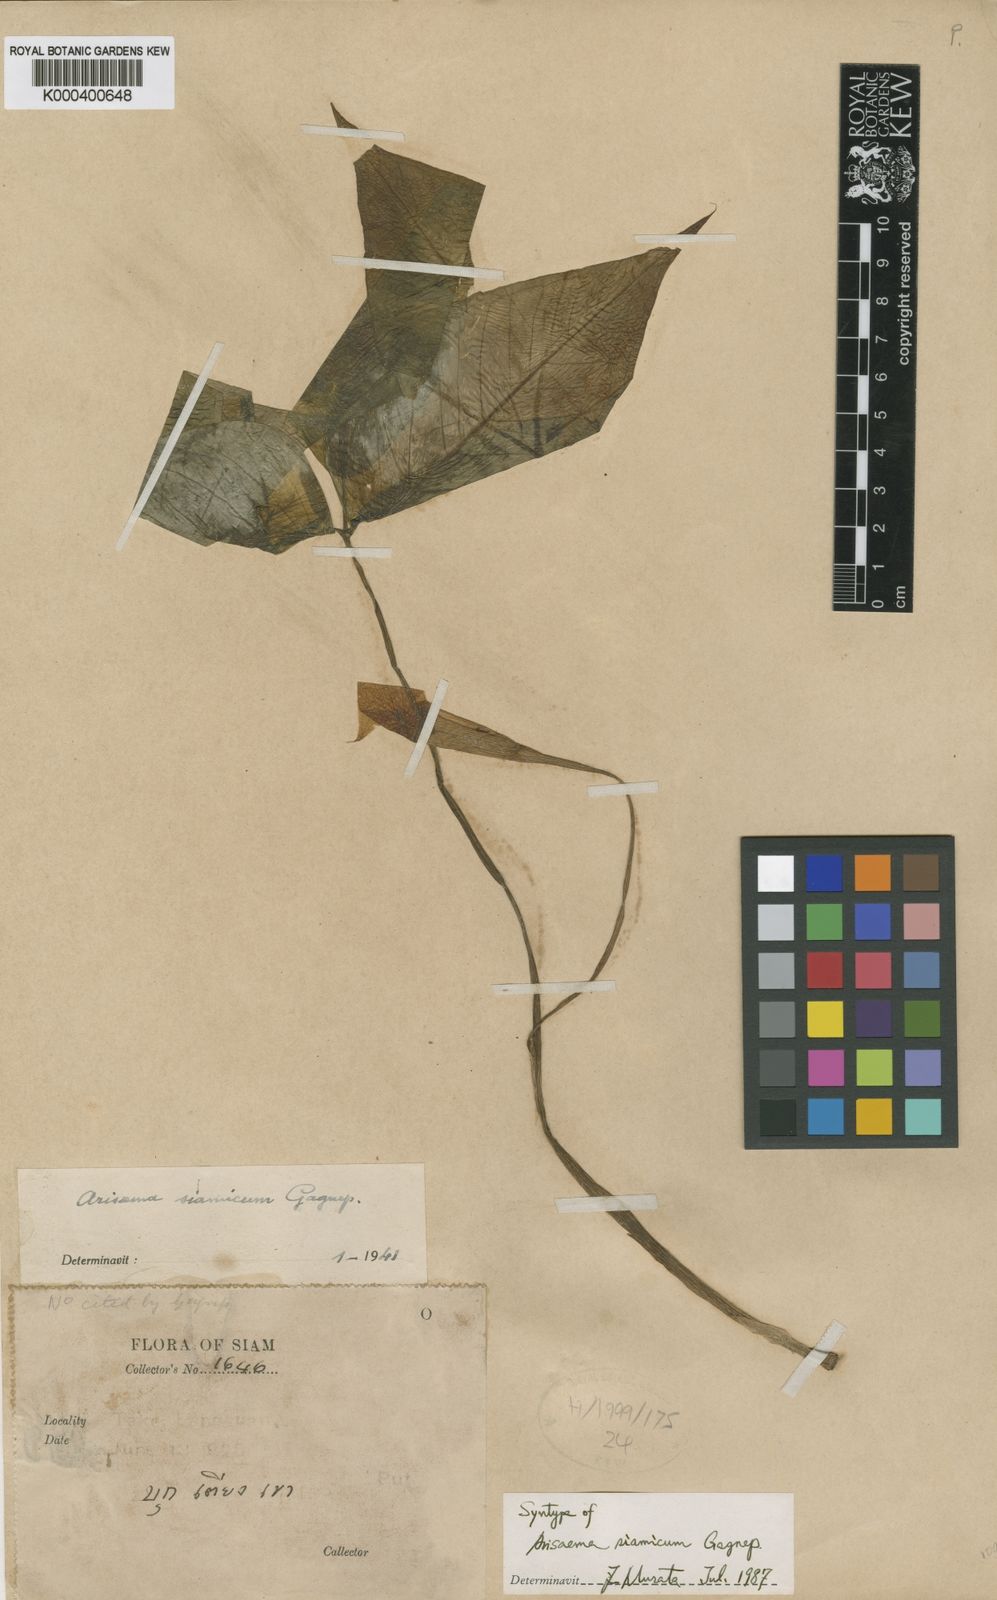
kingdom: Plantae
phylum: Tracheophyta
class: Liliopsida
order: Alismatales
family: Araceae
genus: Arisaema
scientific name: Arisaema siamicum
